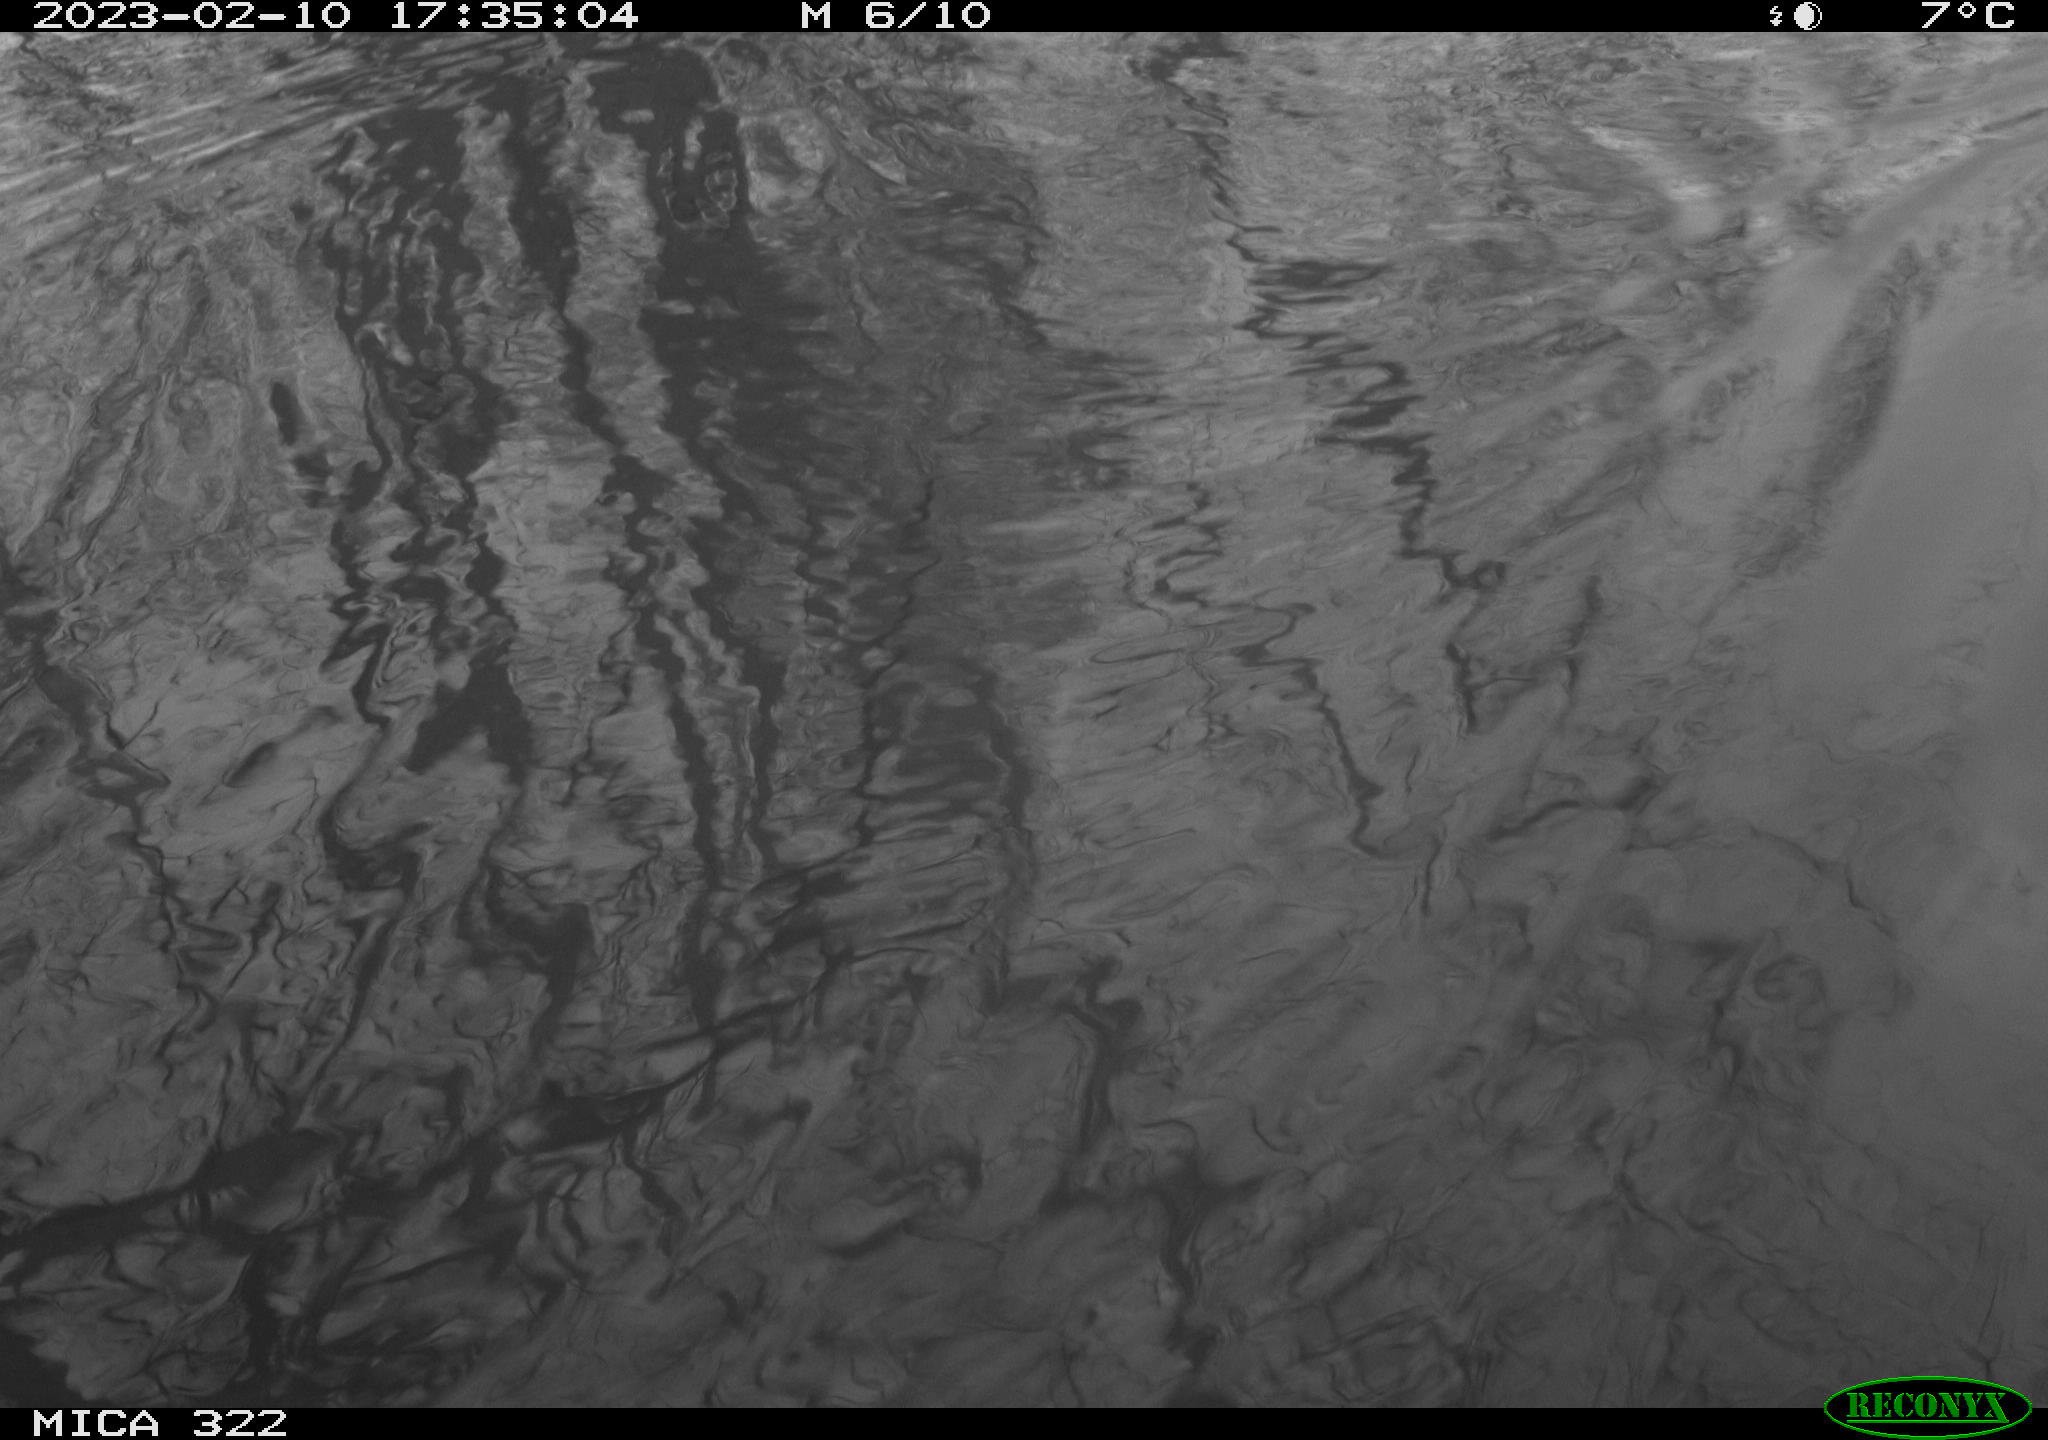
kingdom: Animalia
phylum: Chordata
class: Aves
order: Gruiformes
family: Rallidae
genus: Gallinula
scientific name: Gallinula chloropus
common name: Common moorhen
